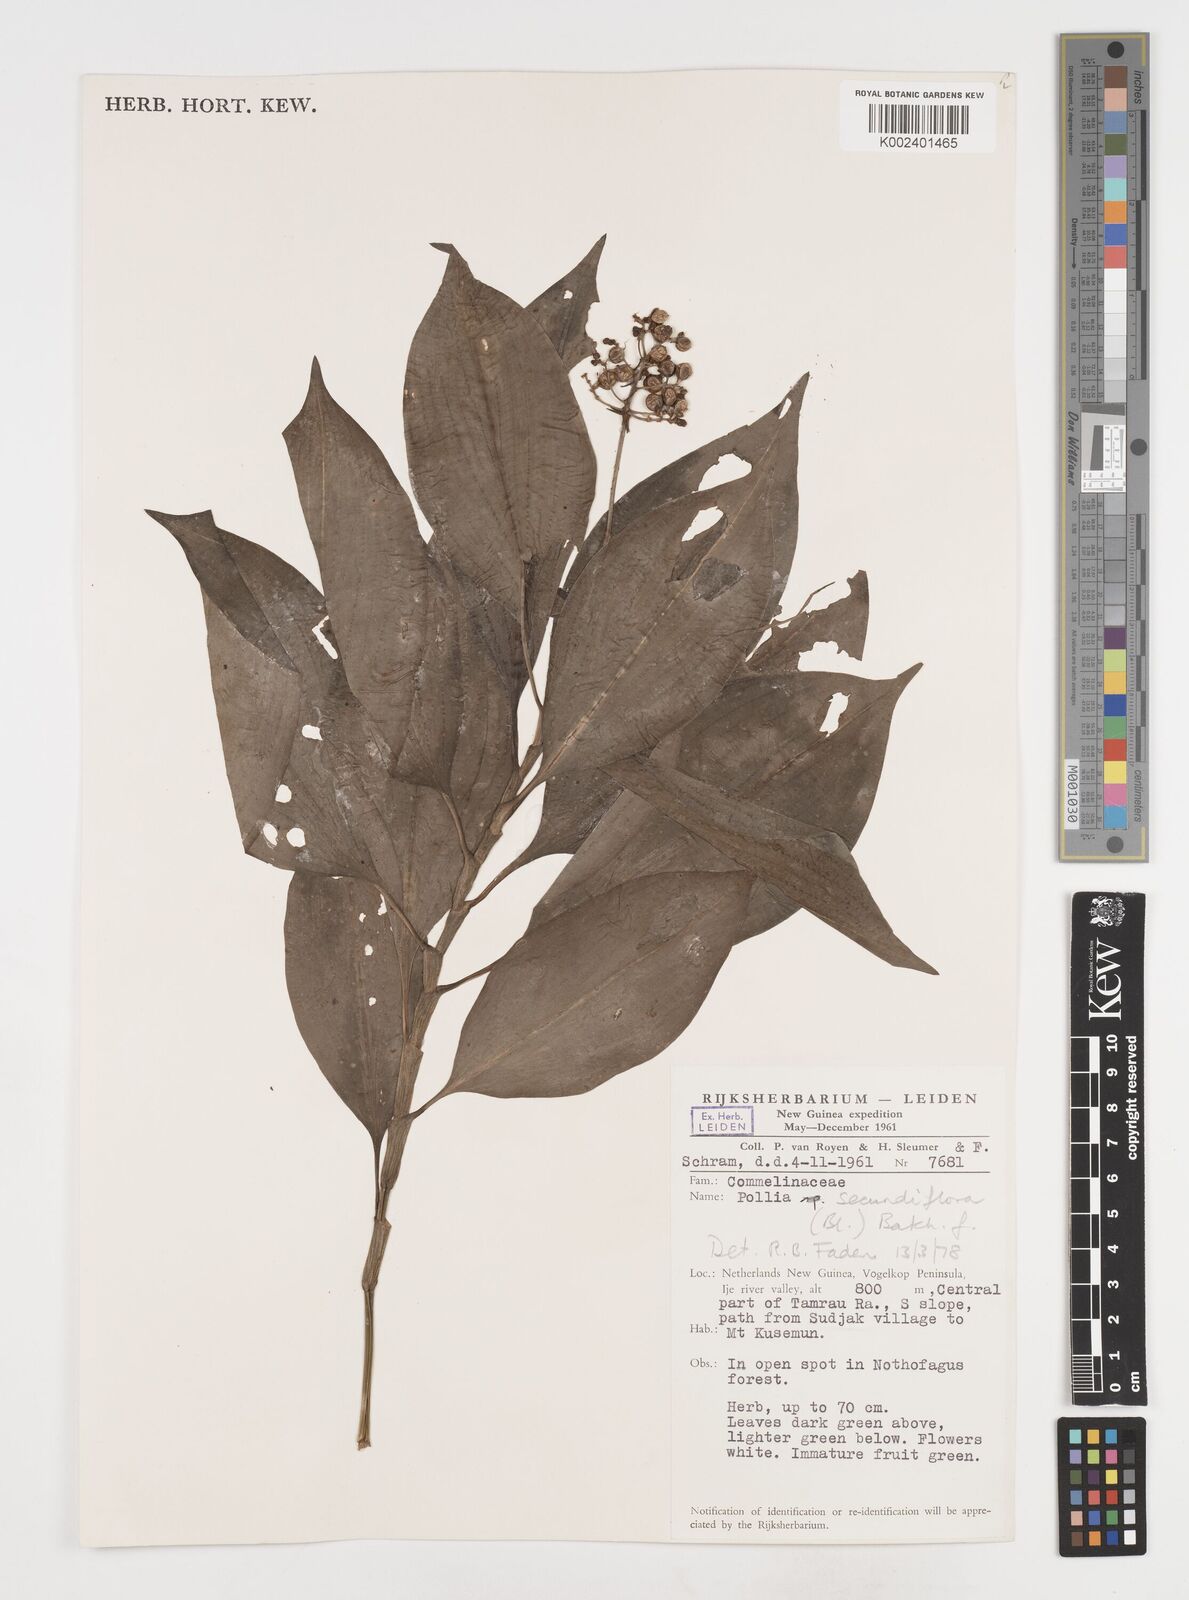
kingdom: Plantae
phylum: Tracheophyta
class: Liliopsida
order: Commelinales
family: Commelinaceae
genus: Pollia
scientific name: Pollia secundiflora
